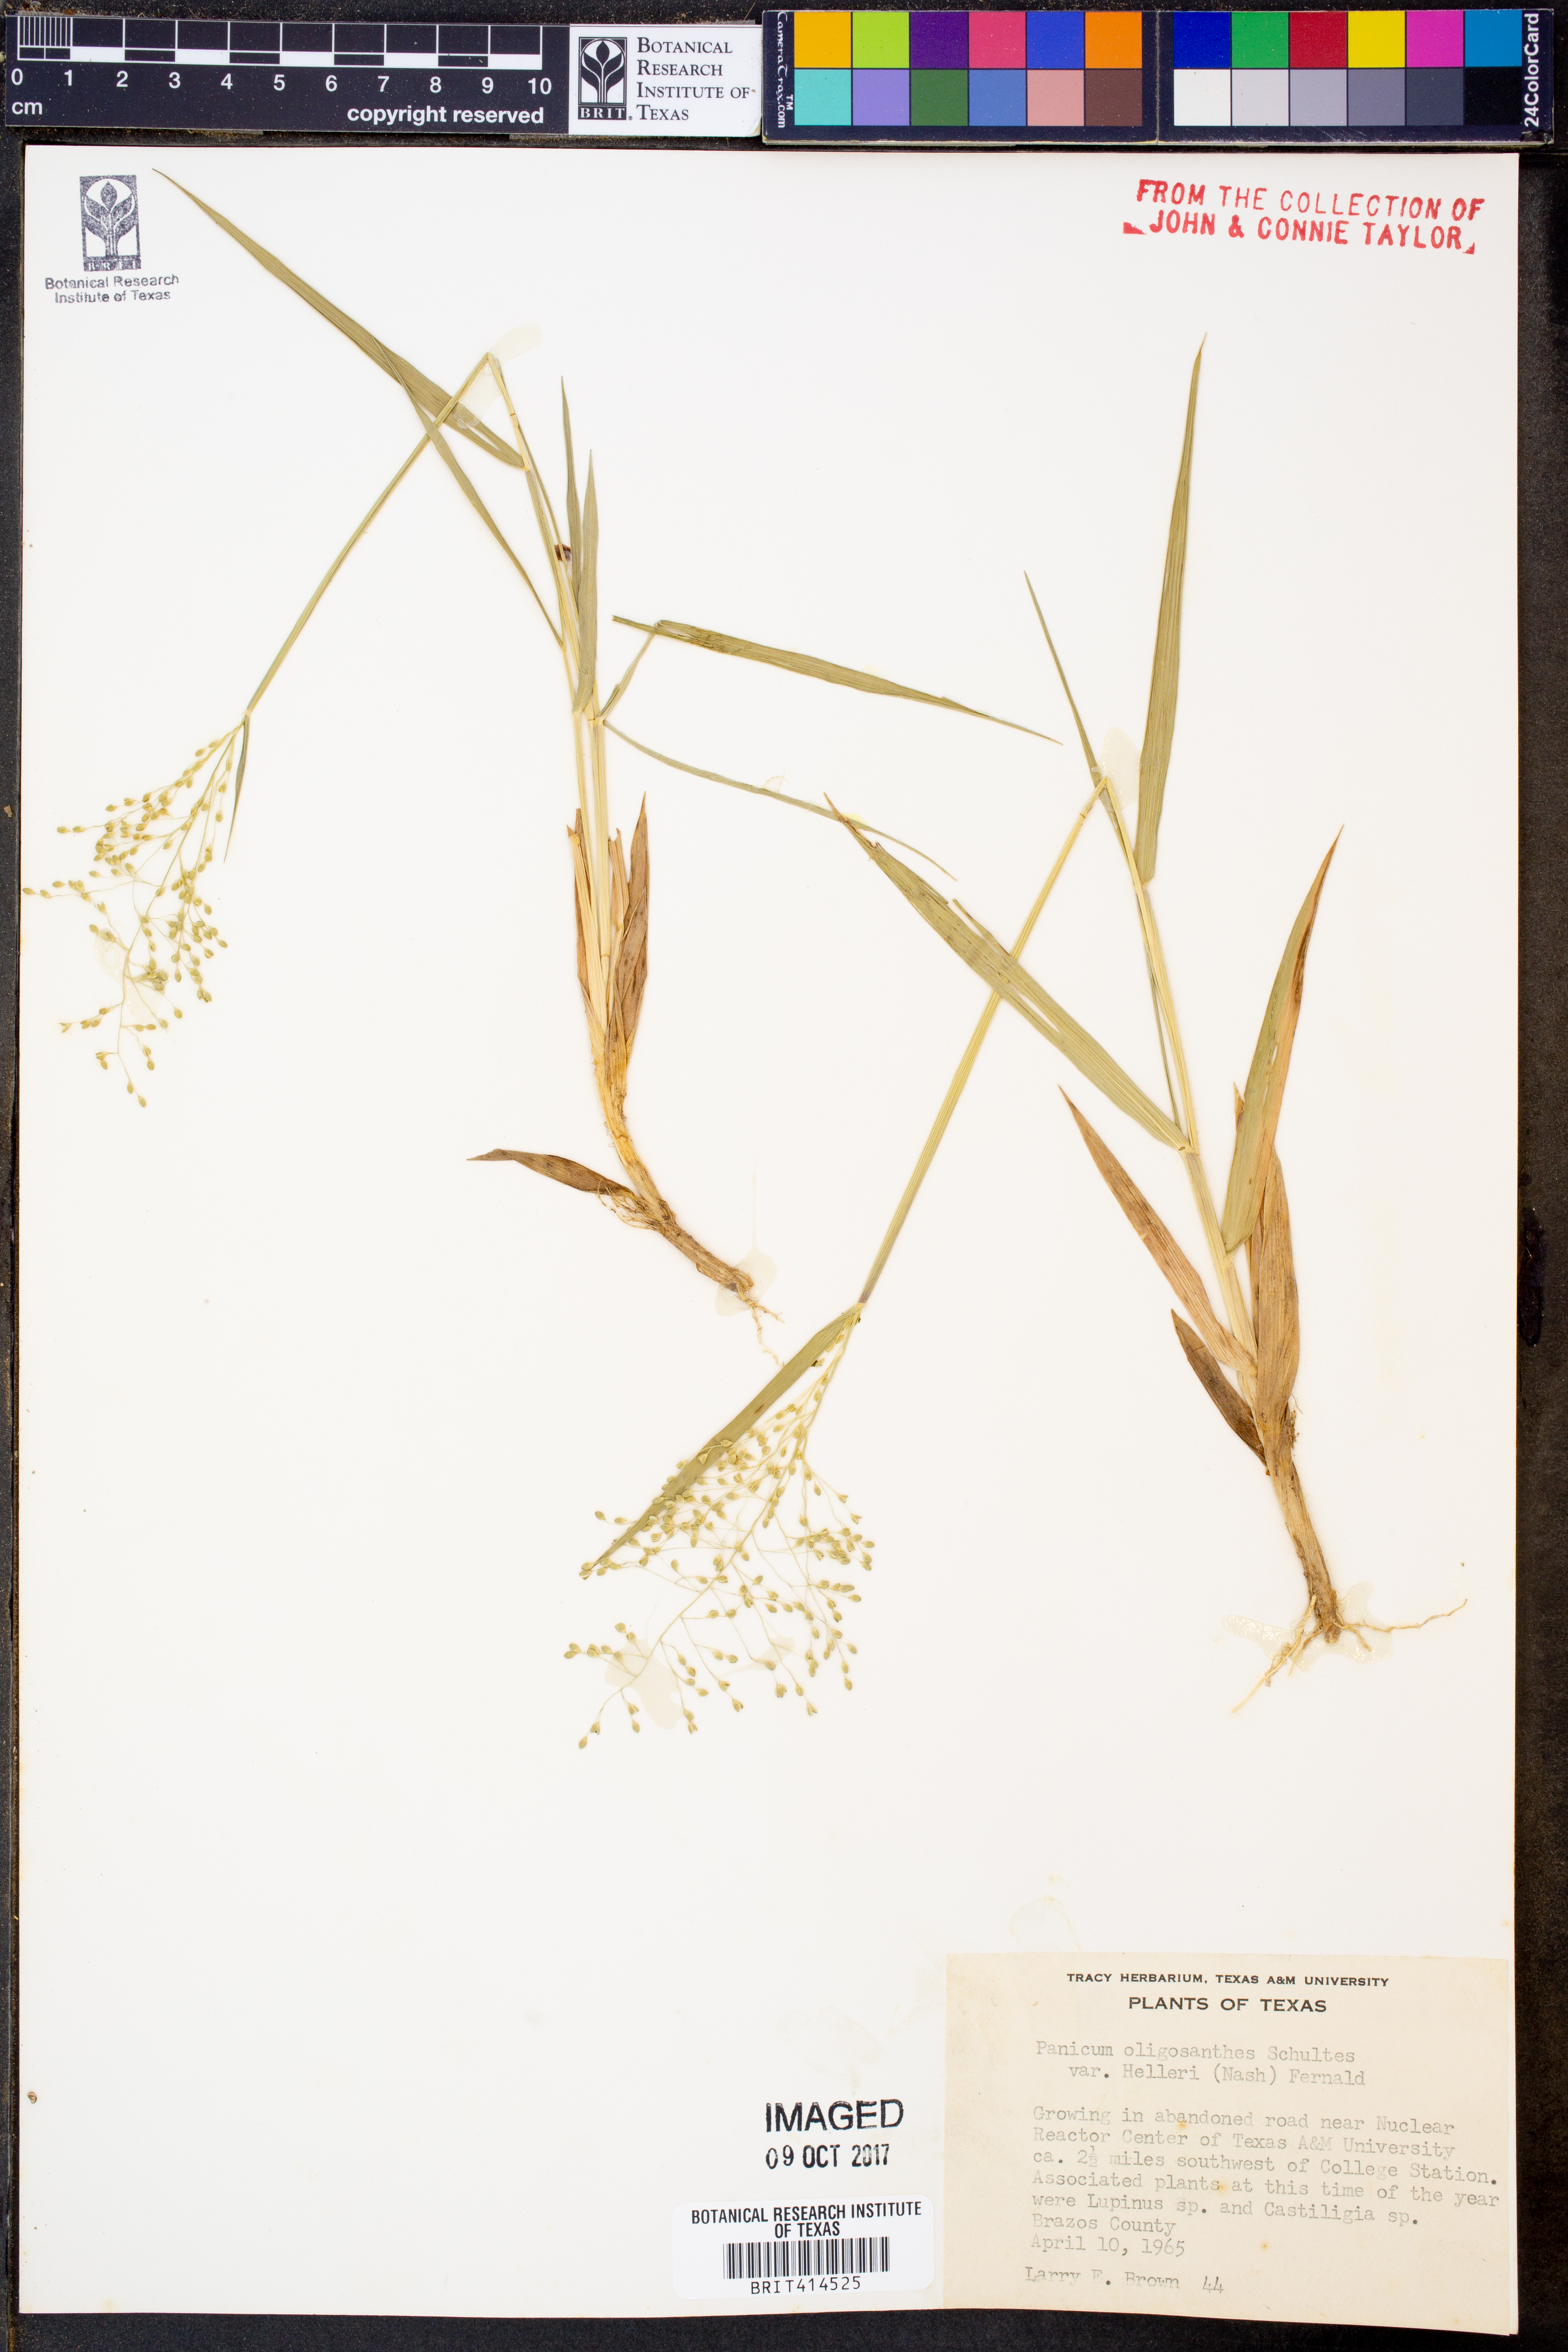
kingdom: Plantae
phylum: Tracheophyta
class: Liliopsida
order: Poales
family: Poaceae
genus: Dichanthelium
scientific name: Dichanthelium oligosanthes
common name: Few-anther obscuregrass
